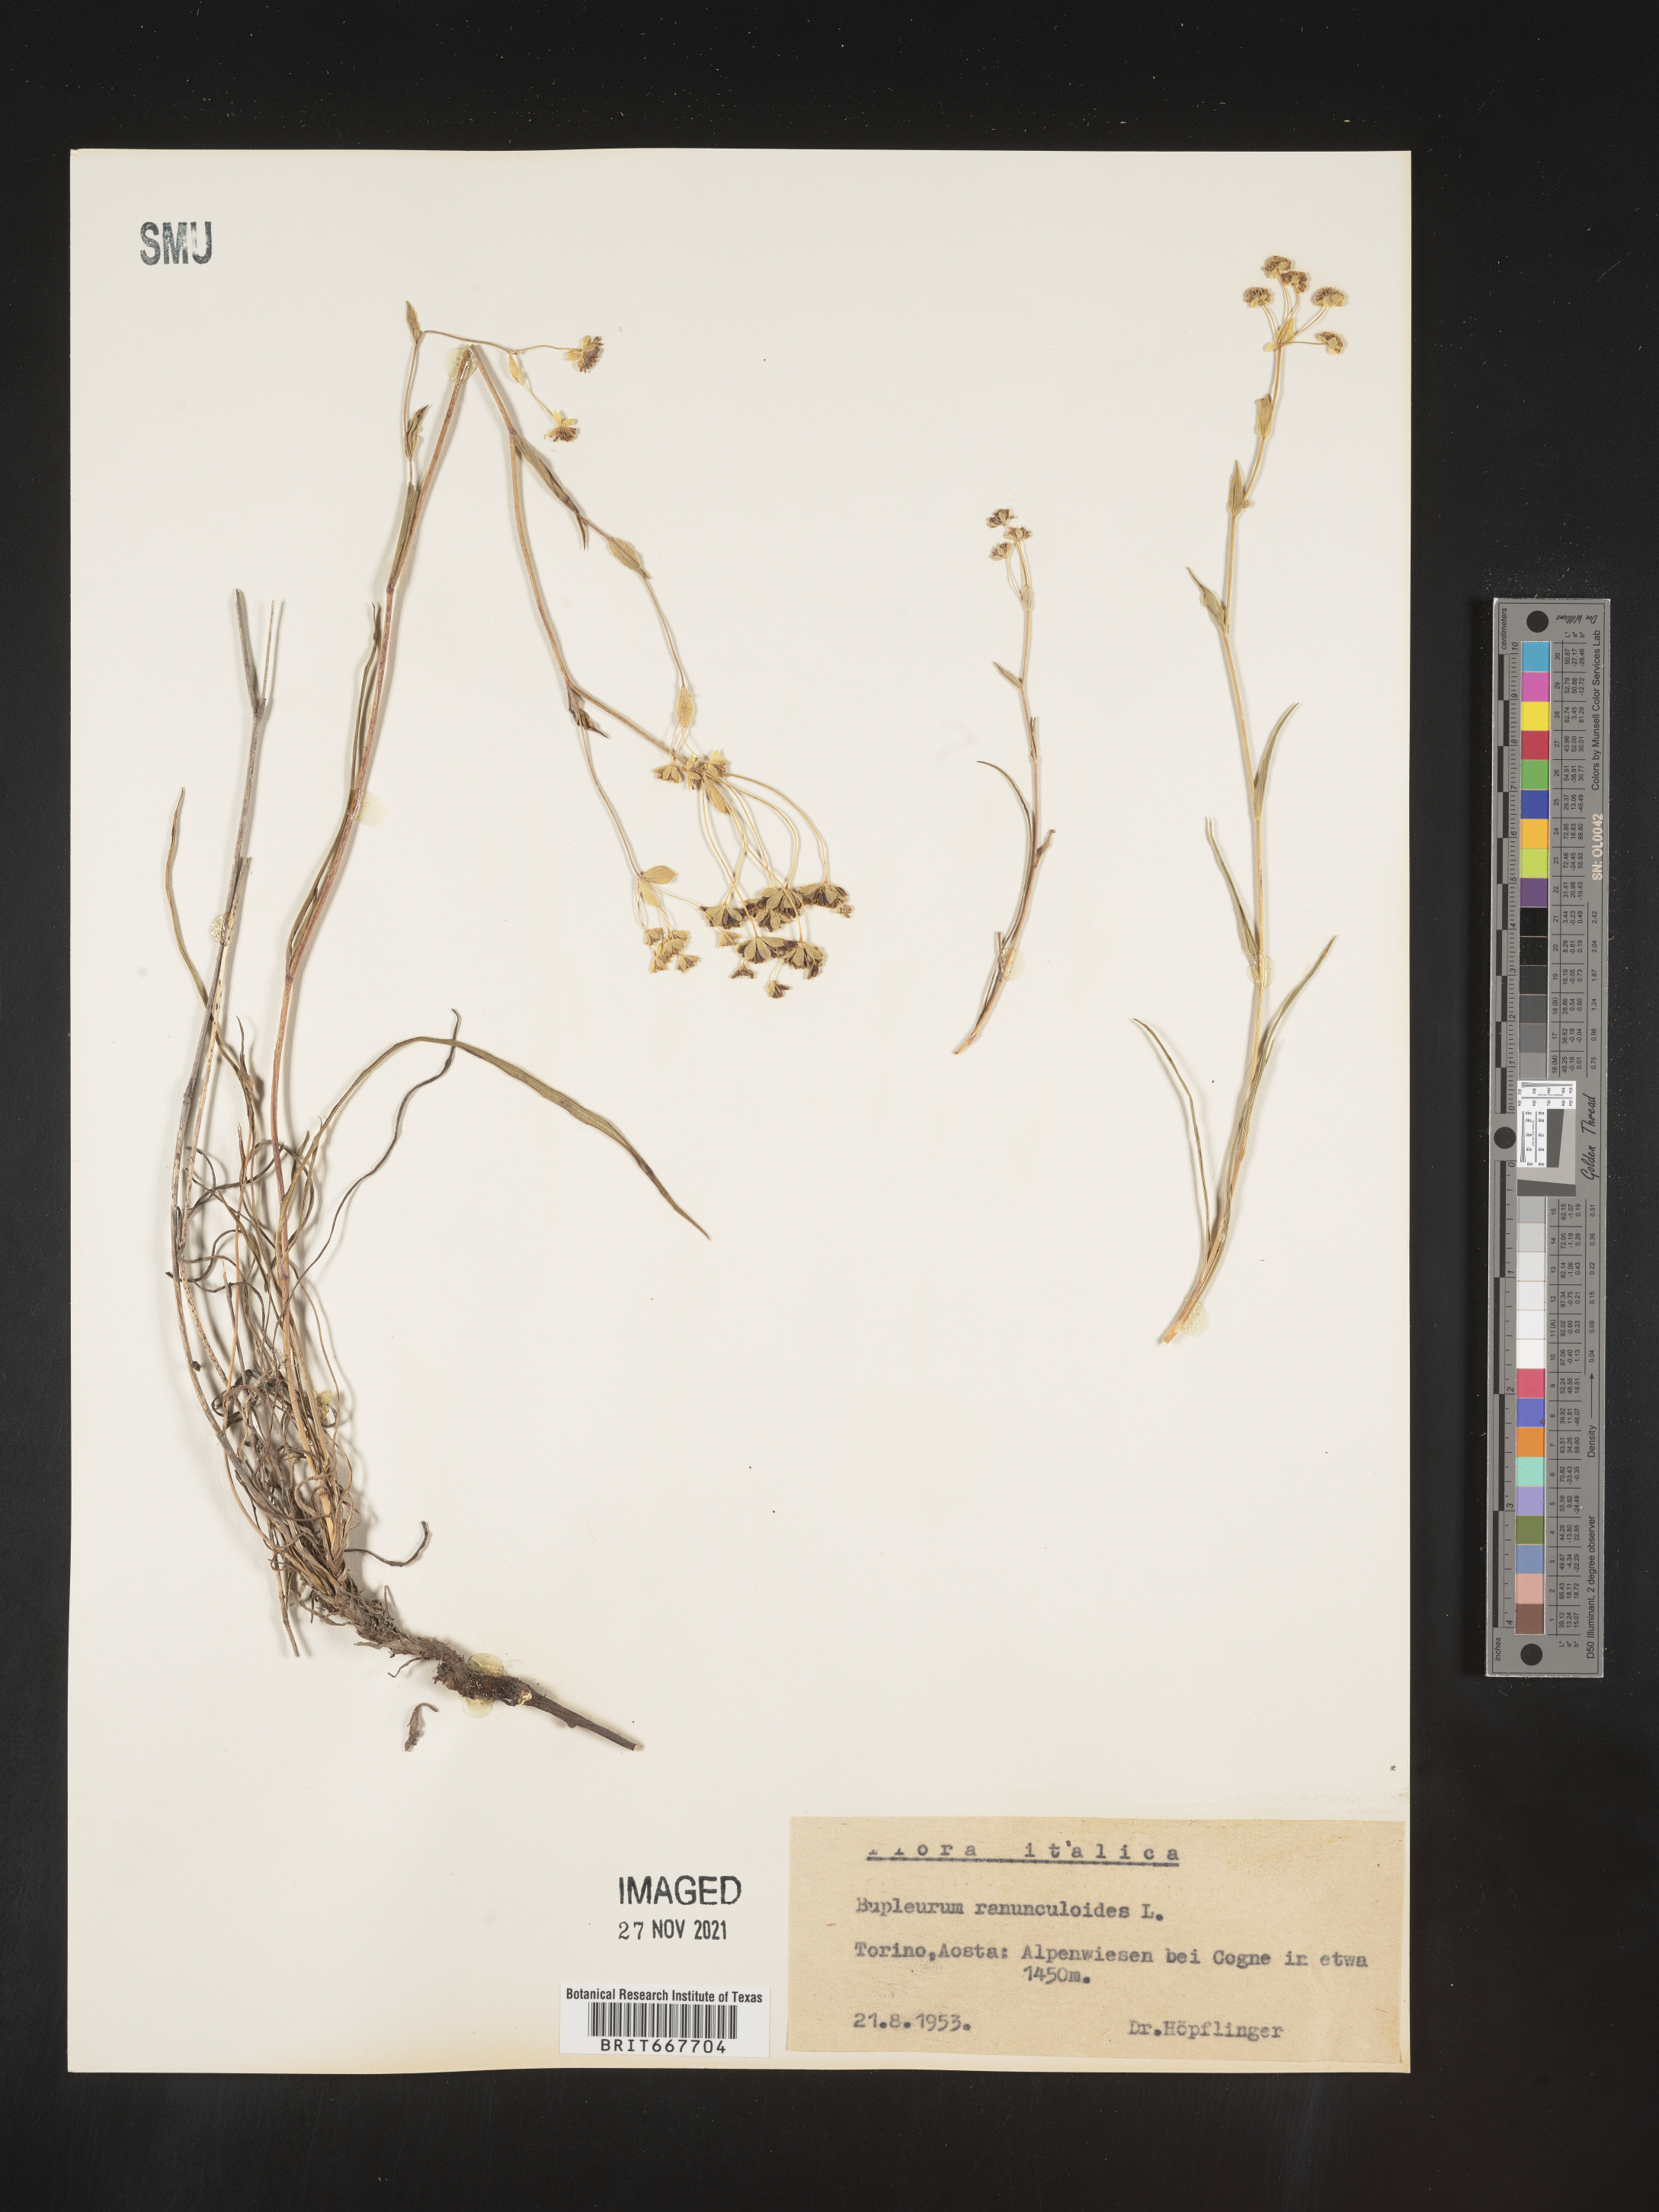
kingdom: Plantae
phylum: Tracheophyta
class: Magnoliopsida
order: Apiales
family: Apiaceae
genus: Bupleurum
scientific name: Bupleurum
